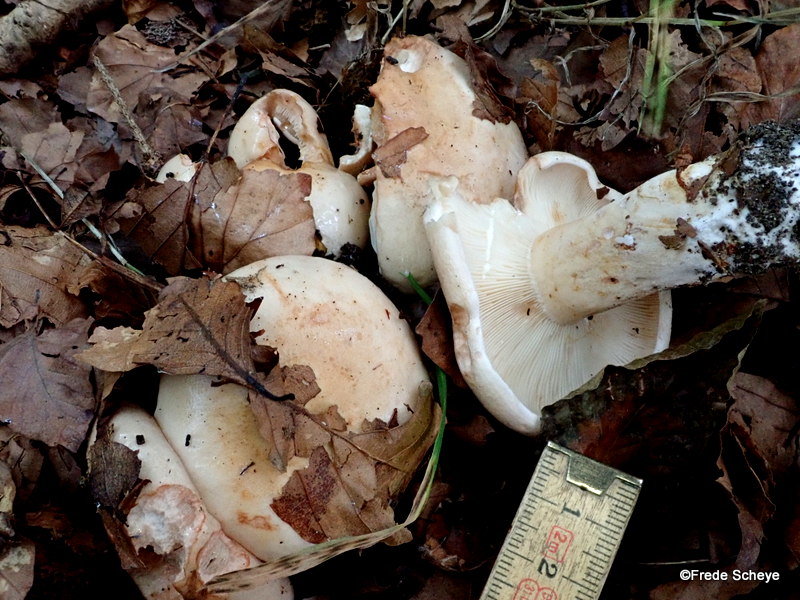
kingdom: Fungi
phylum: Basidiomycota
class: Agaricomycetes
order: Russulales
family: Russulaceae
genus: Lactarius
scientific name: Lactarius pallidus
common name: bleg mælkehat
